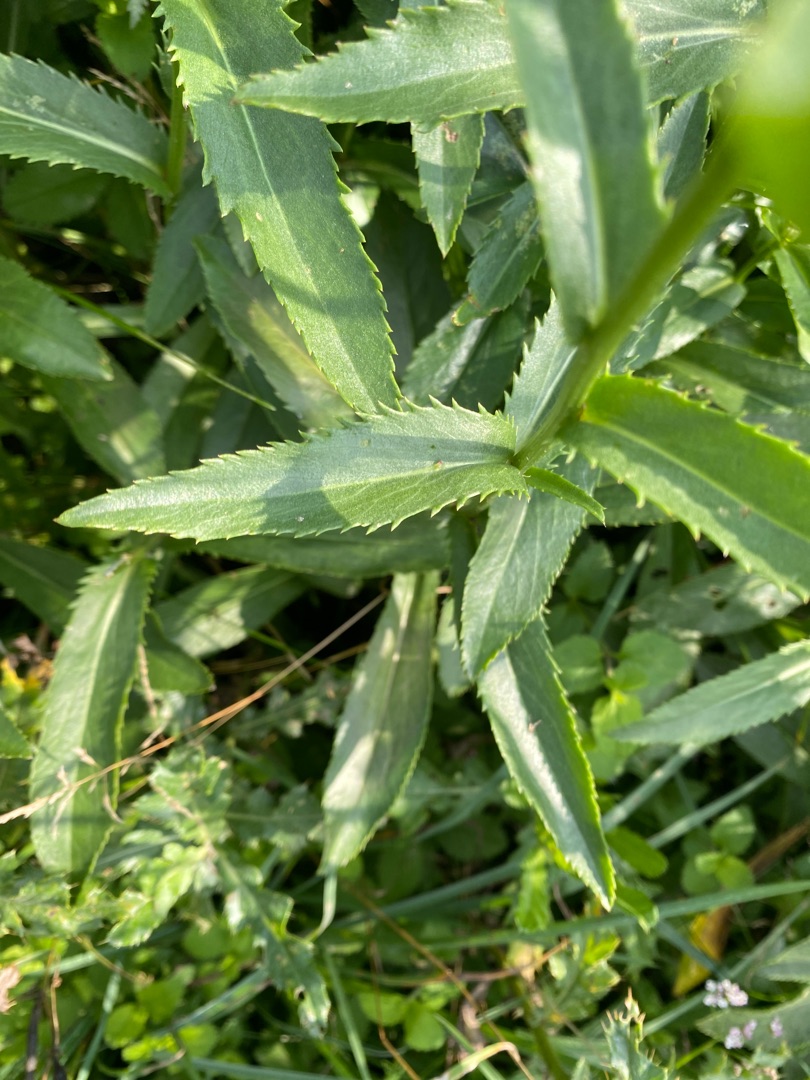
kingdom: Plantae
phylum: Tracheophyta
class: Magnoliopsida
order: Asterales
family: Asteraceae
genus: Leucanthemum
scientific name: Leucanthemum superbum
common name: Kæmpe-margerit
